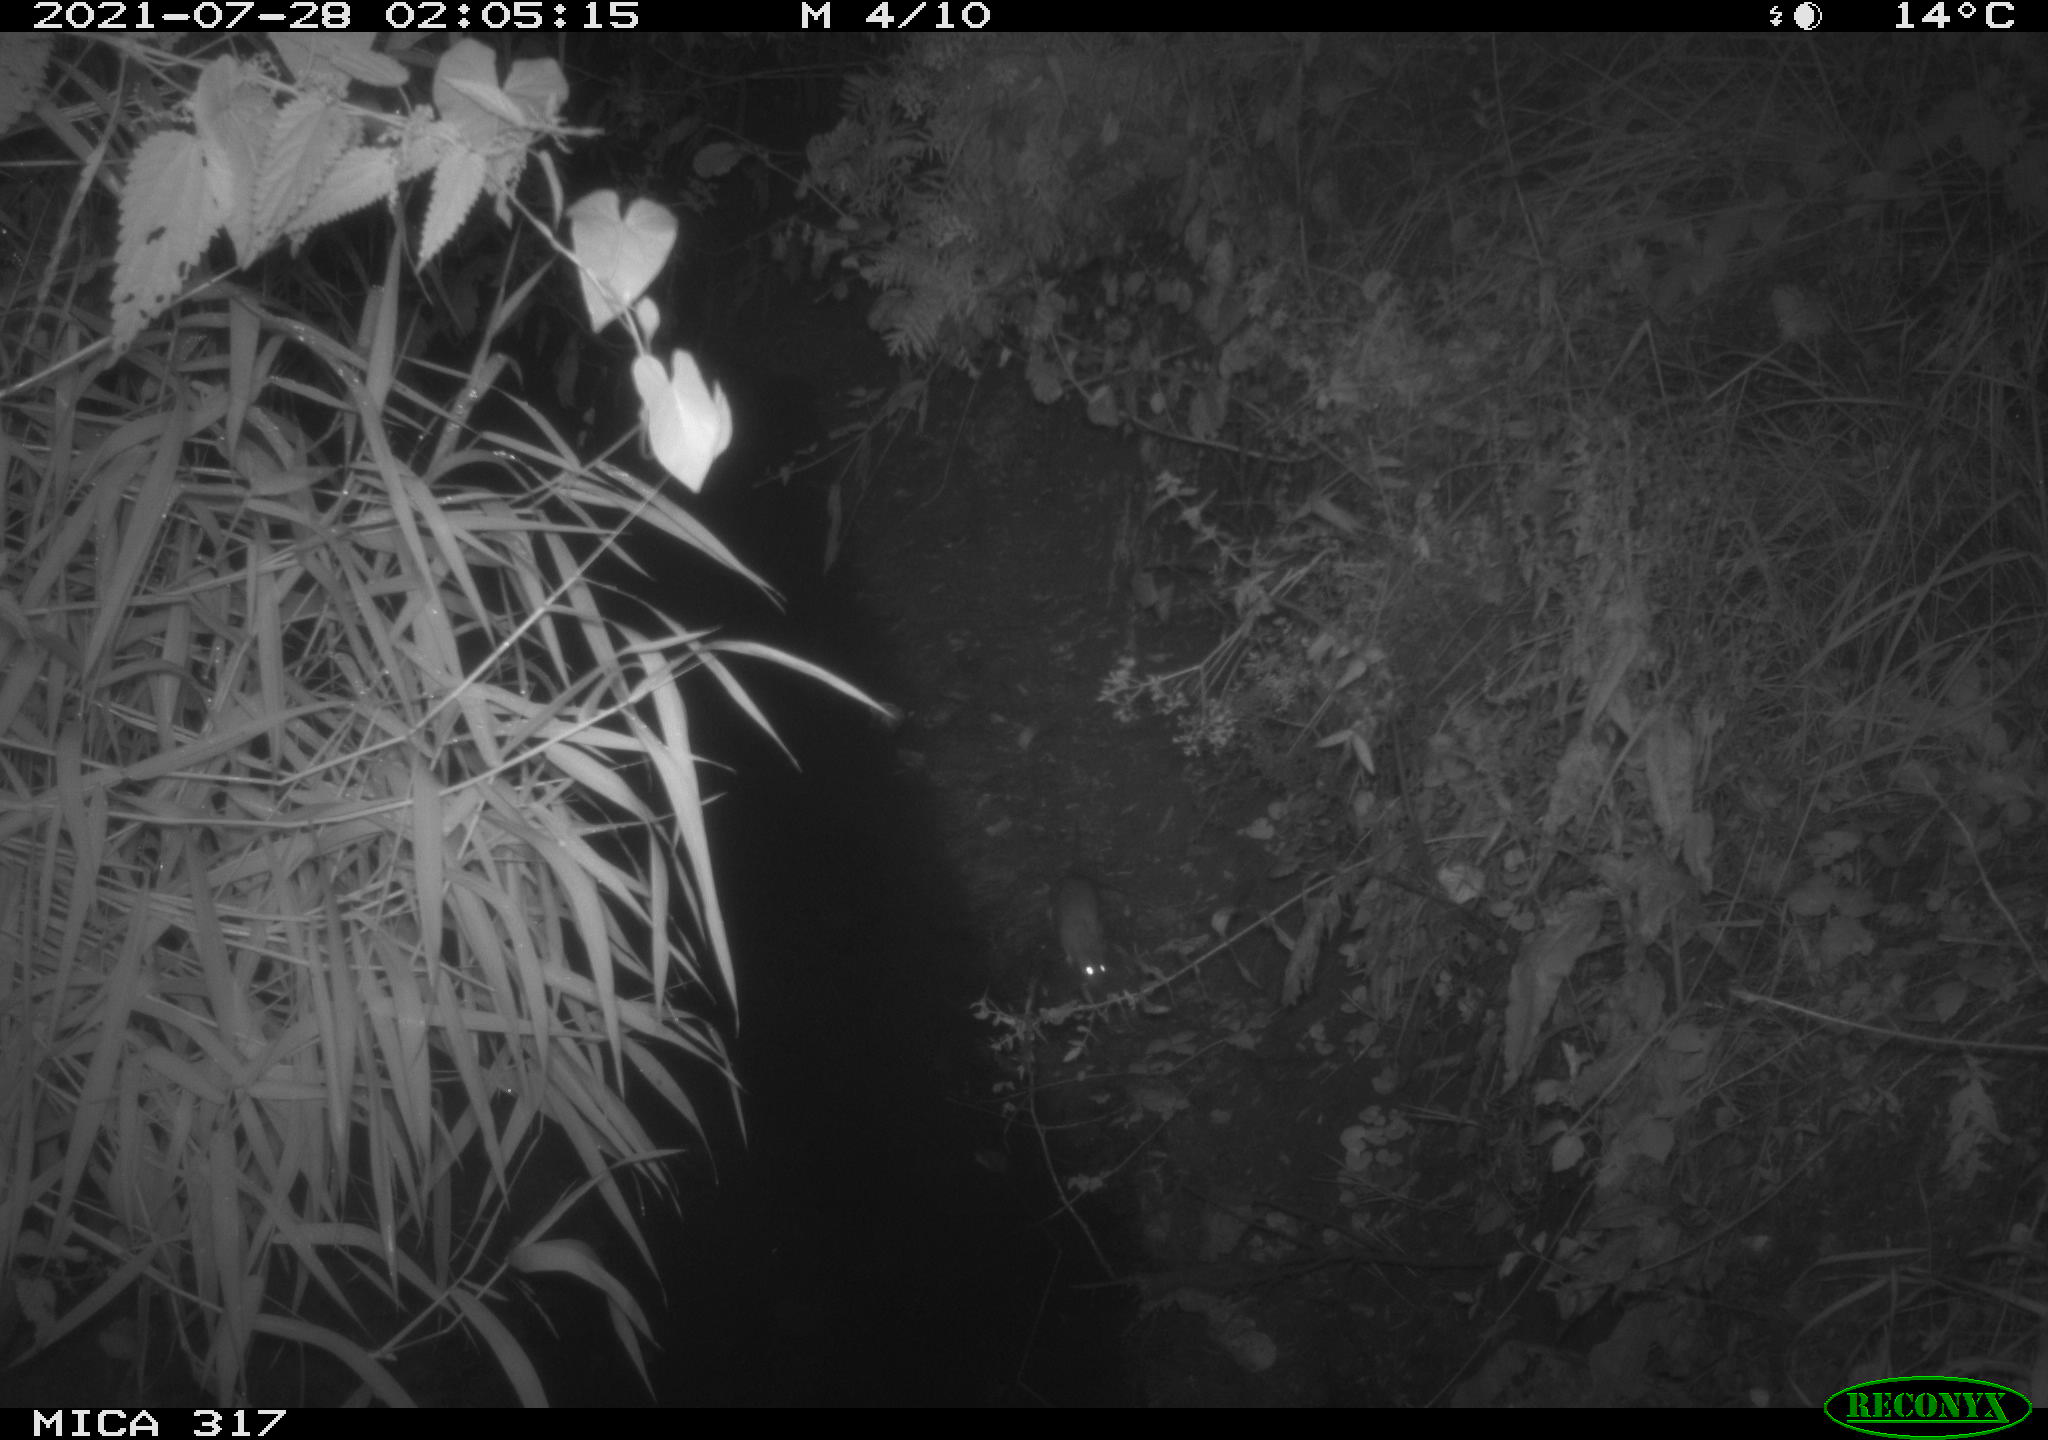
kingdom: Animalia
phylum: Chordata
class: Mammalia
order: Rodentia
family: Muridae
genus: Rattus
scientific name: Rattus norvegicus
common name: Brown rat
